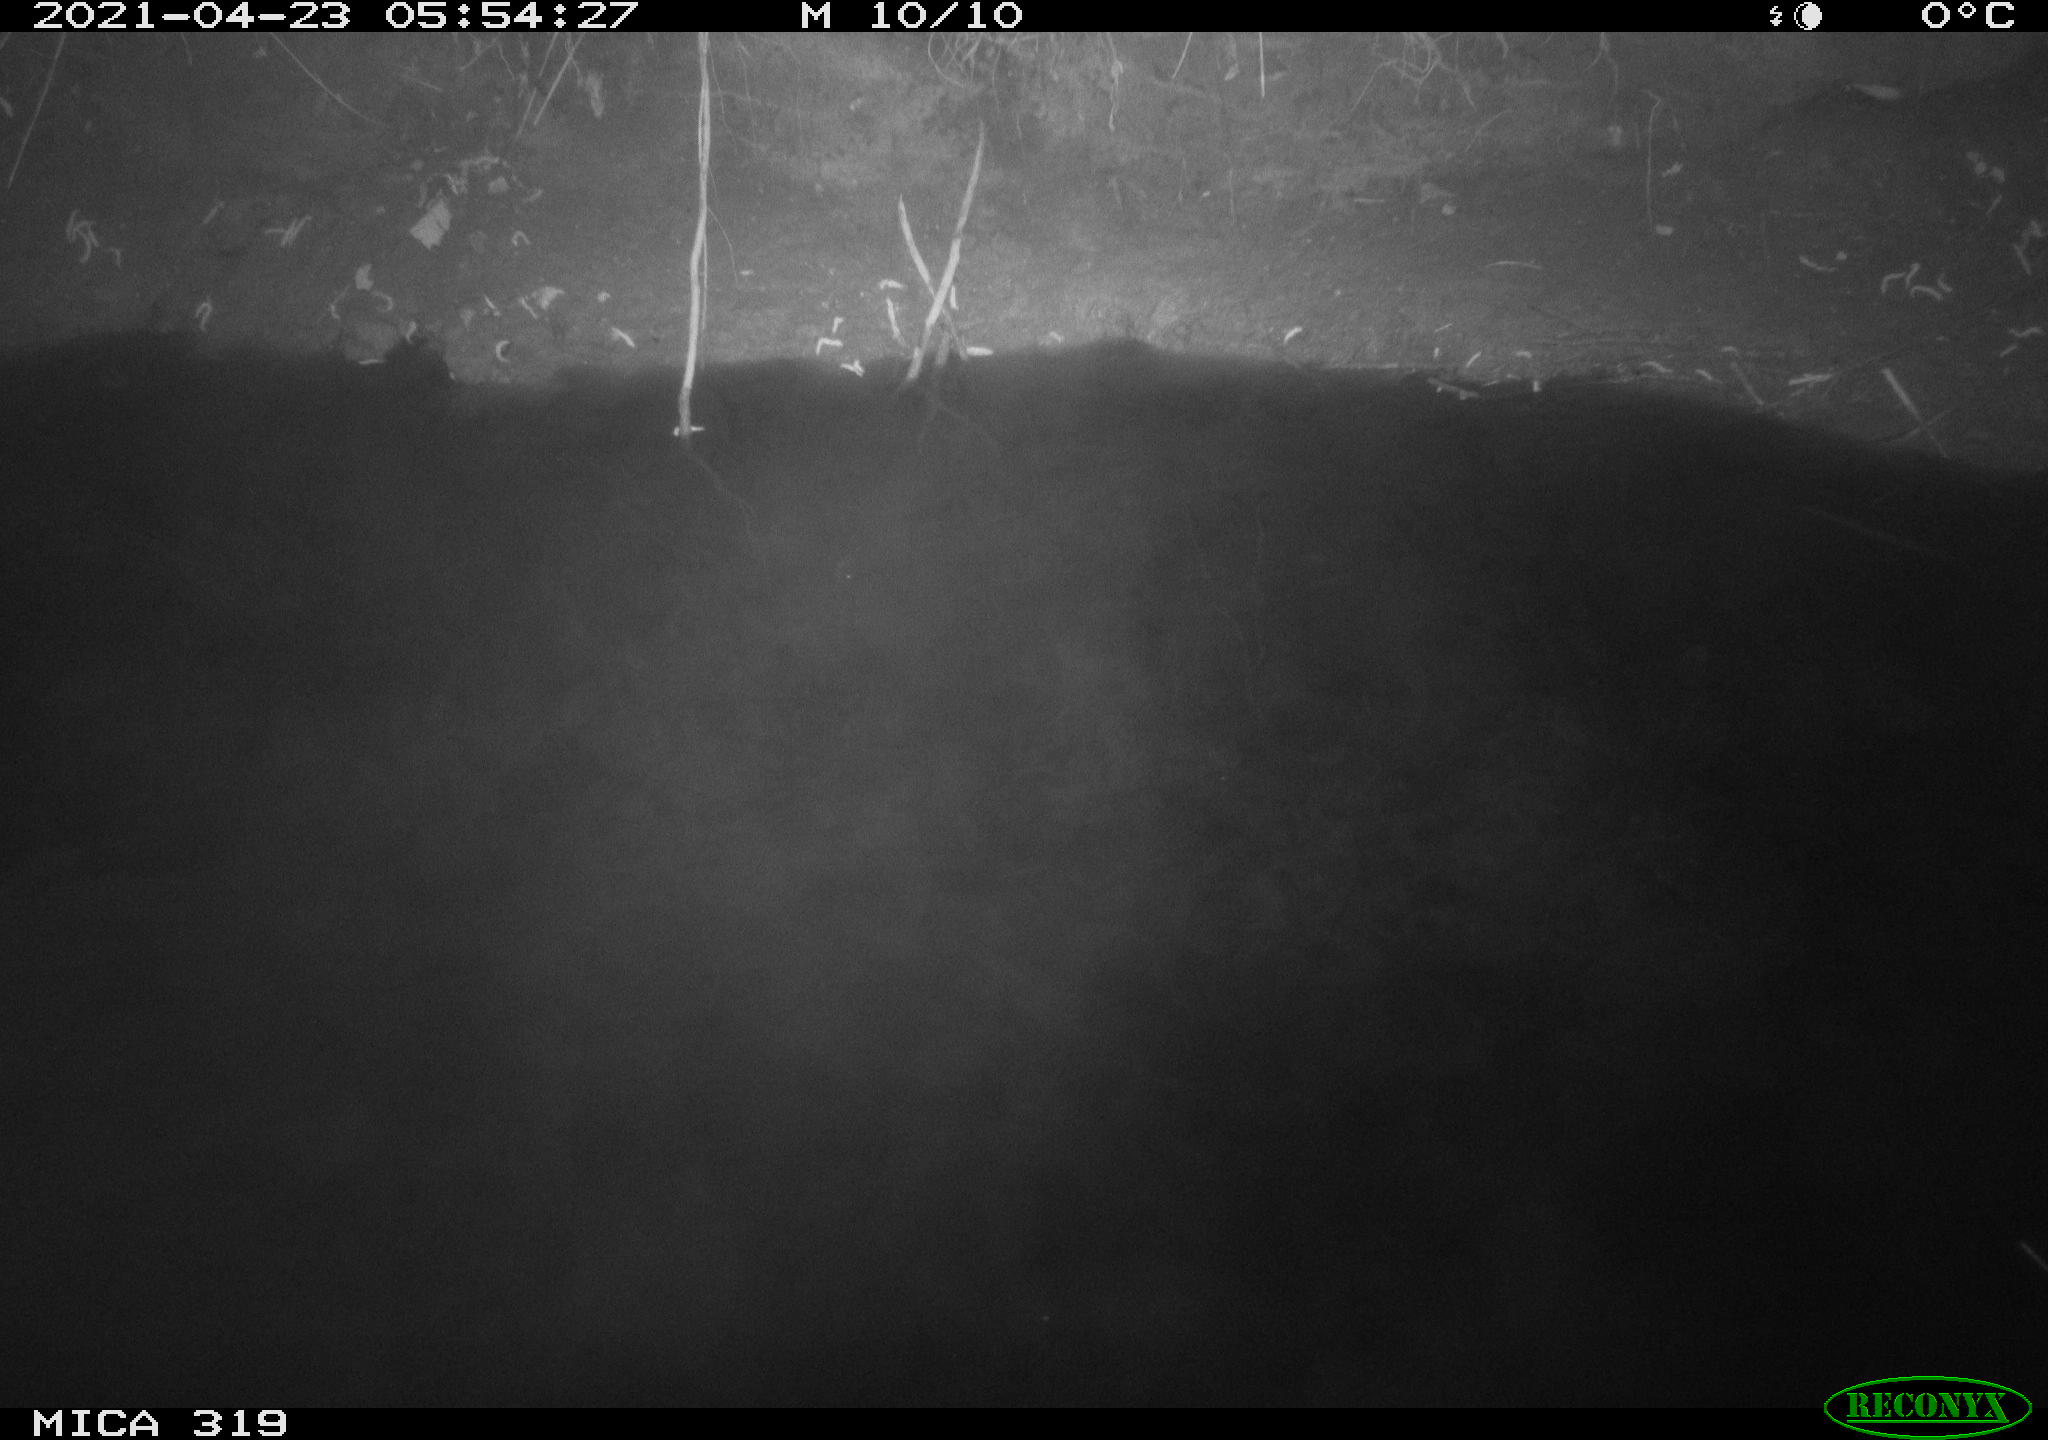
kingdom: Animalia
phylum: Chordata
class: Aves
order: Gruiformes
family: Rallidae
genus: Gallinula
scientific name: Gallinula chloropus
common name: Common moorhen
